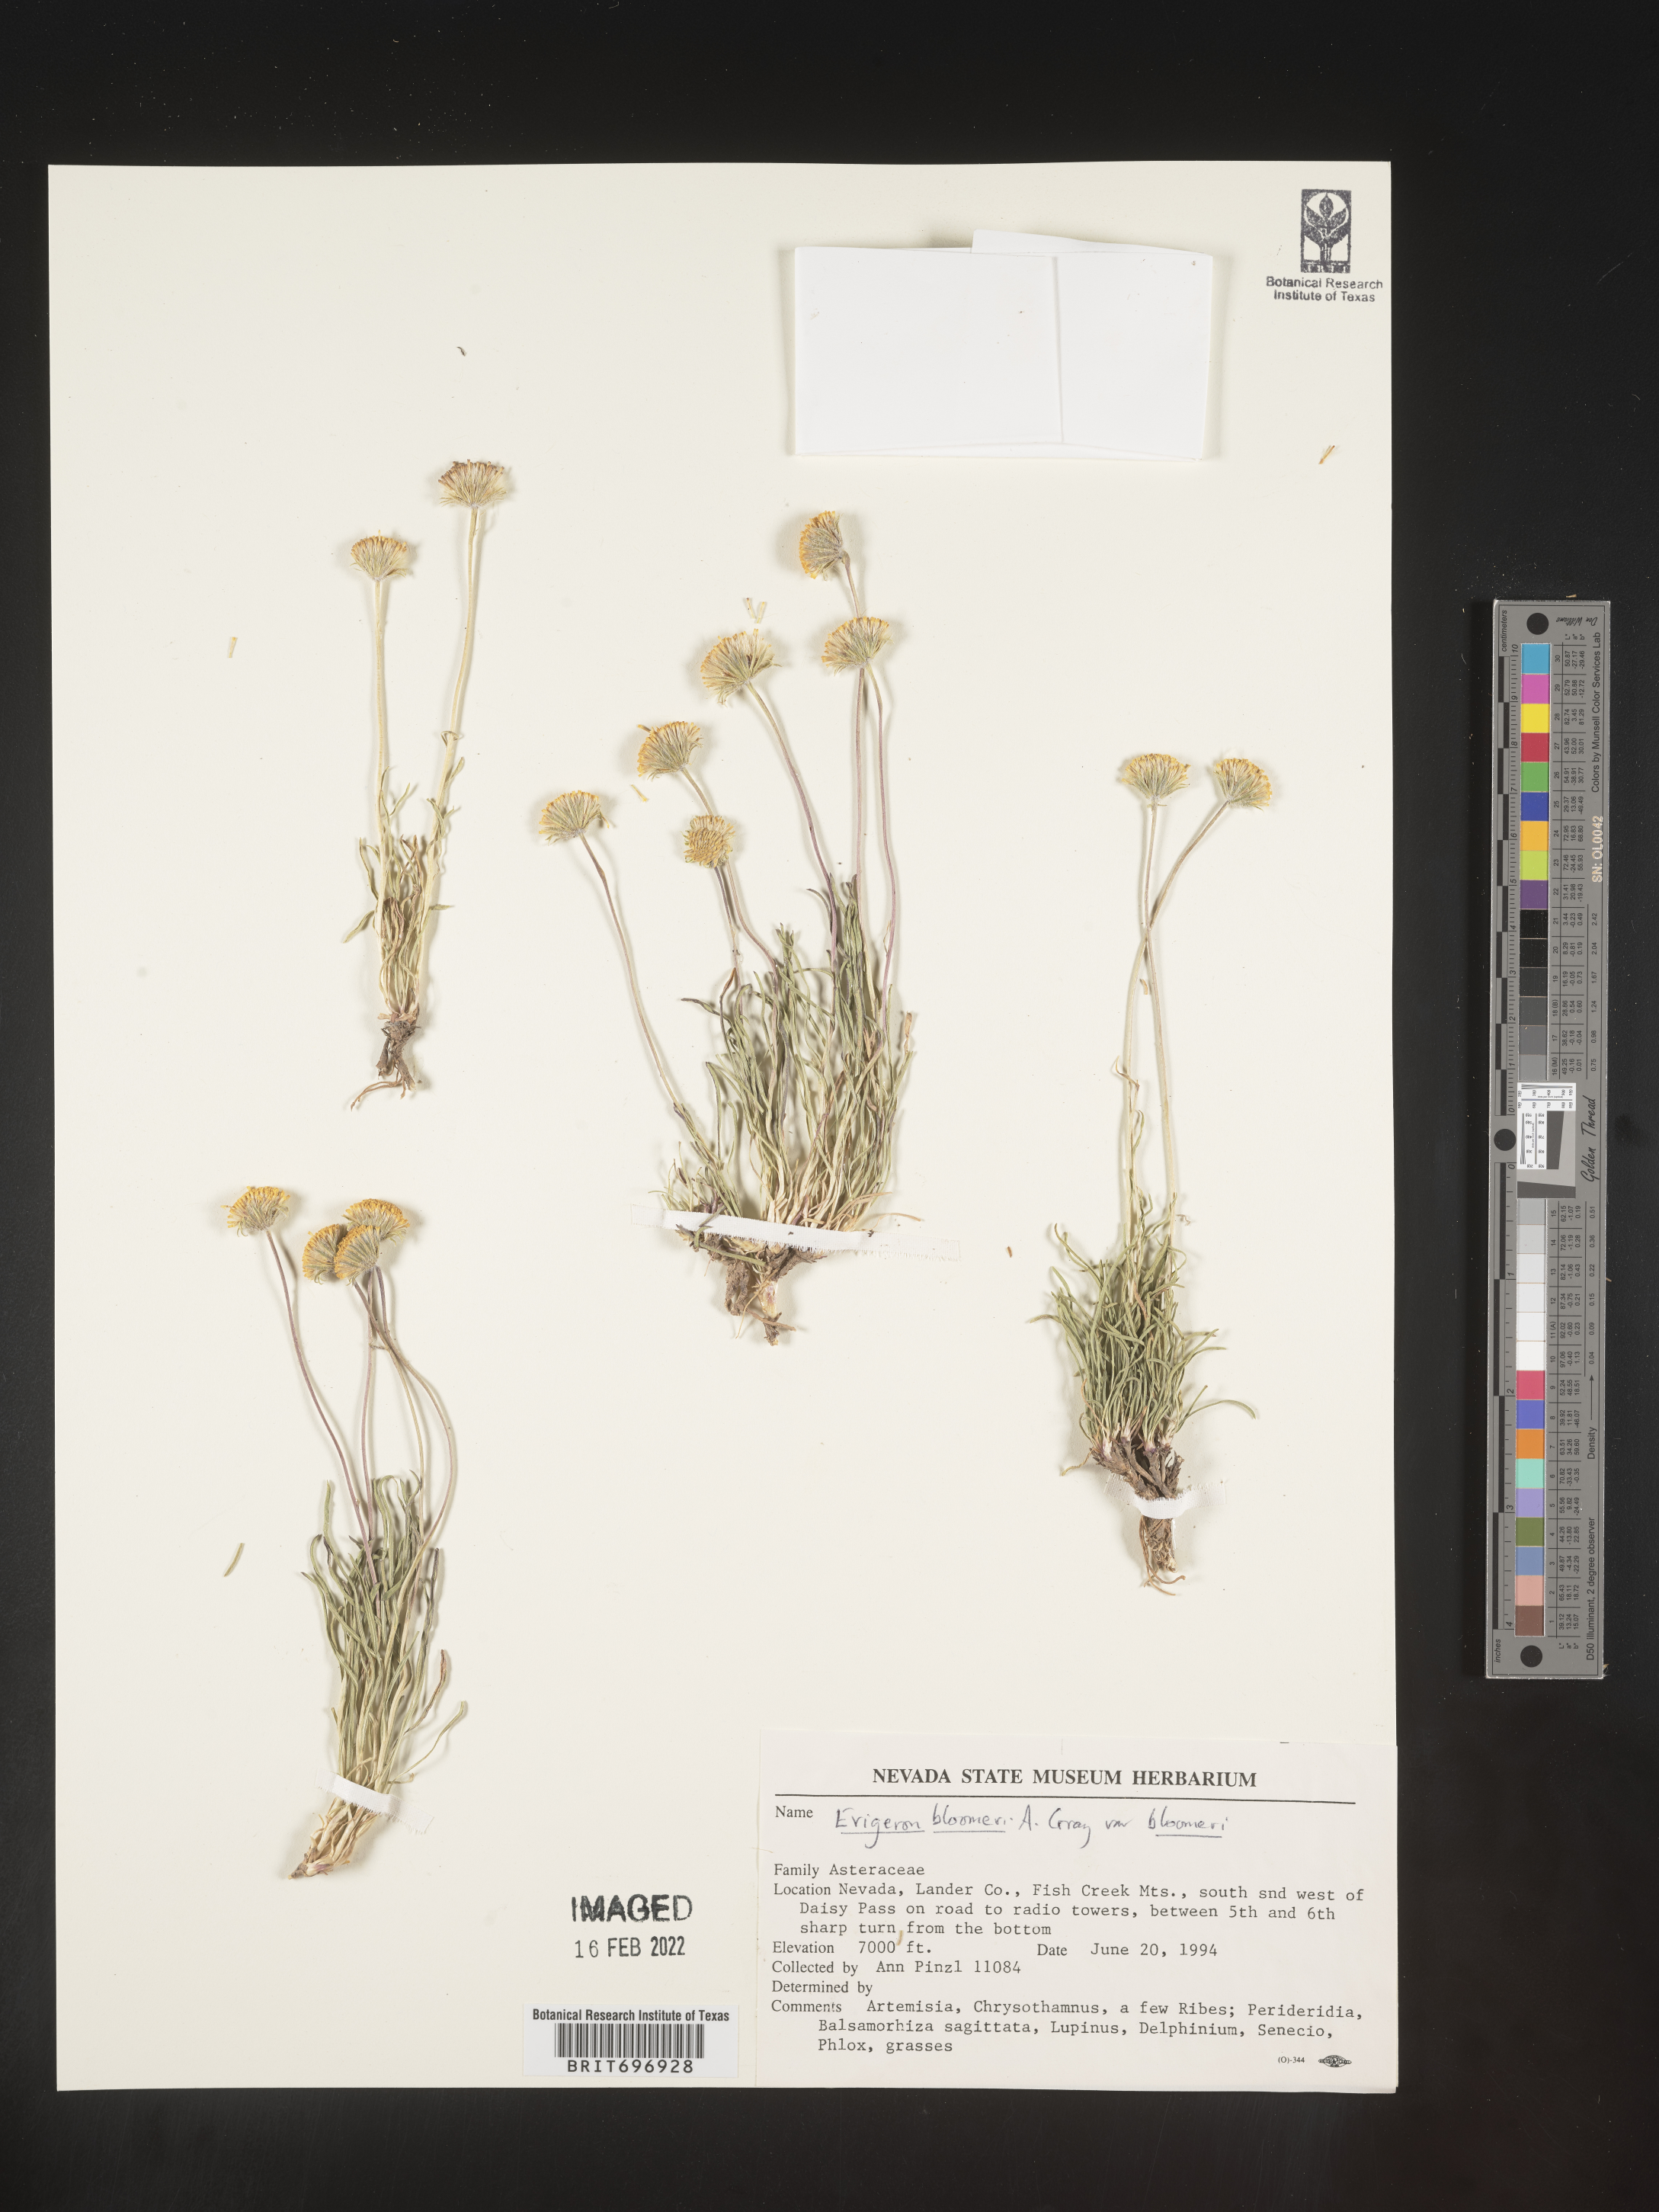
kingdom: Plantae
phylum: Tracheophyta
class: Magnoliopsida
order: Asterales
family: Asteraceae
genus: Erigeron
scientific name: Erigeron bloomeri
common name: Bloomer's fleabane
